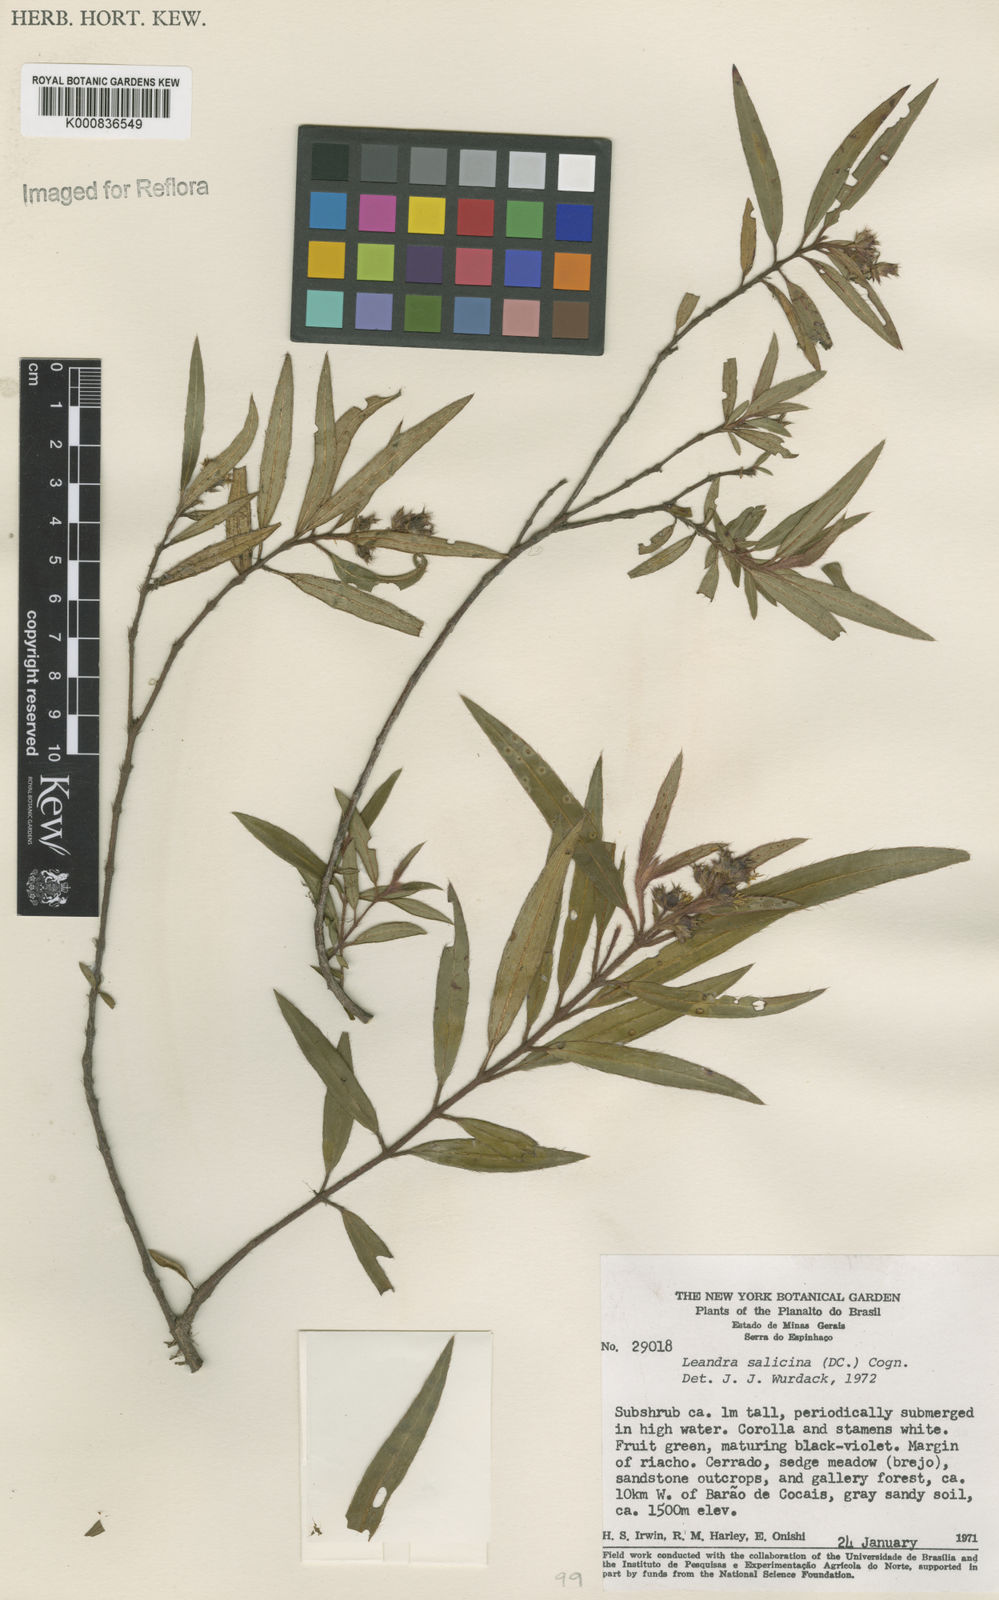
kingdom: Plantae
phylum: Tracheophyta
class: Magnoliopsida
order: Myrtales
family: Melastomataceae
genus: Miconia
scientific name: Miconia salicina
